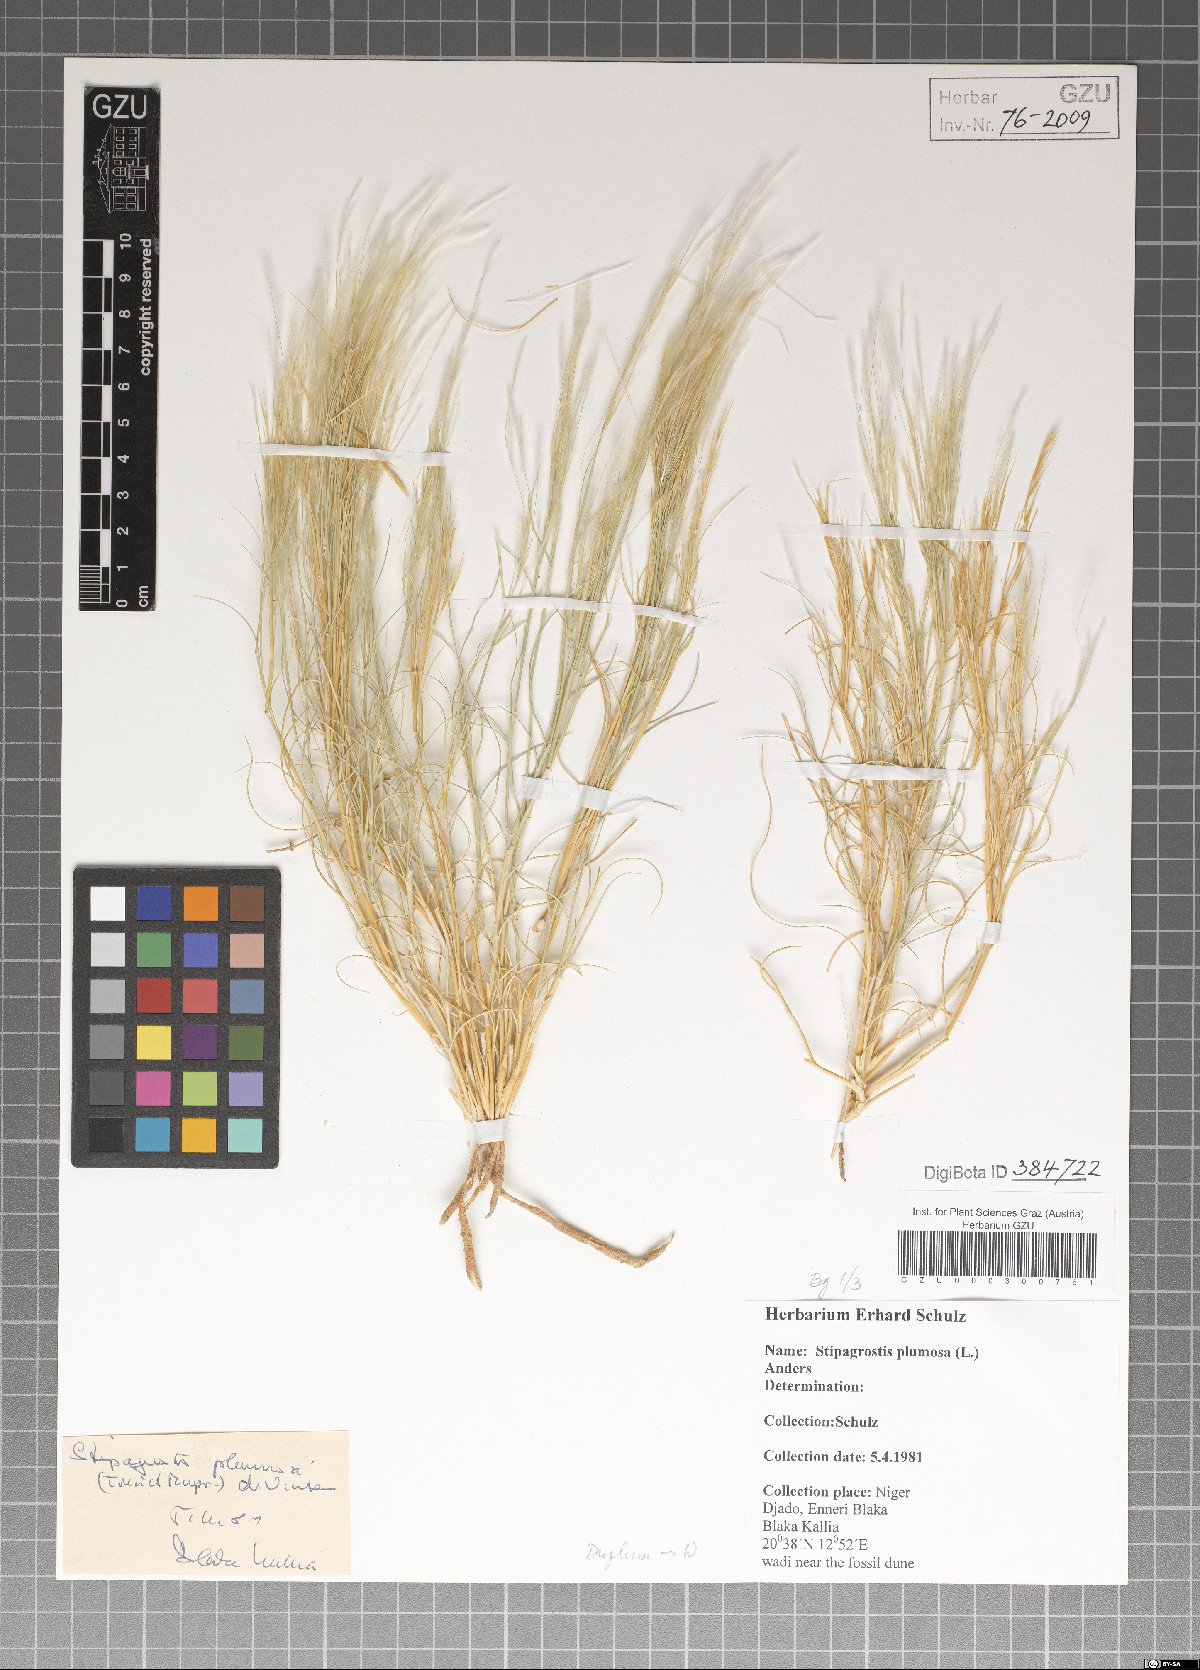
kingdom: Plantae
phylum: Tracheophyta
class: Liliopsida
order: Poales
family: Poaceae
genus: Stipagrostis
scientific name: Stipagrostis plumosa
